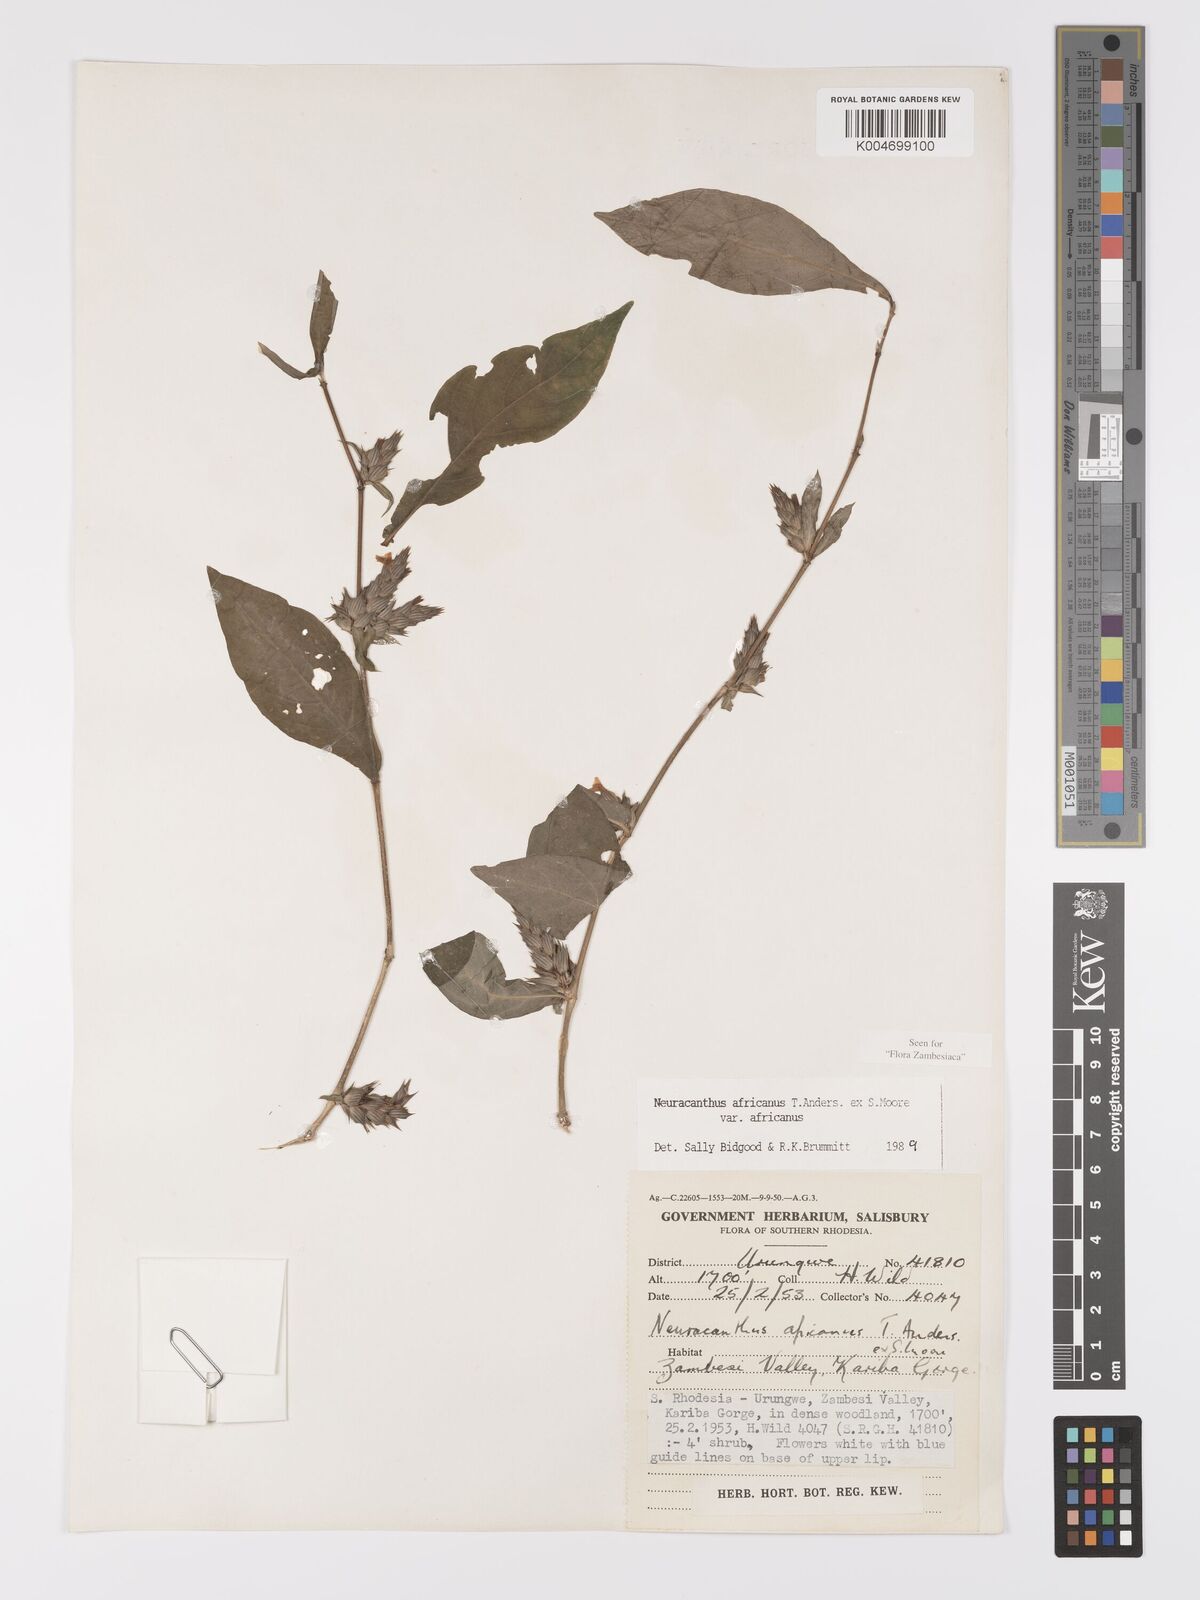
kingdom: Plantae
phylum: Tracheophyta
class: Magnoliopsida
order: Lamiales
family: Acanthaceae
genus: Neuracanthus
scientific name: Neuracanthus africanus
